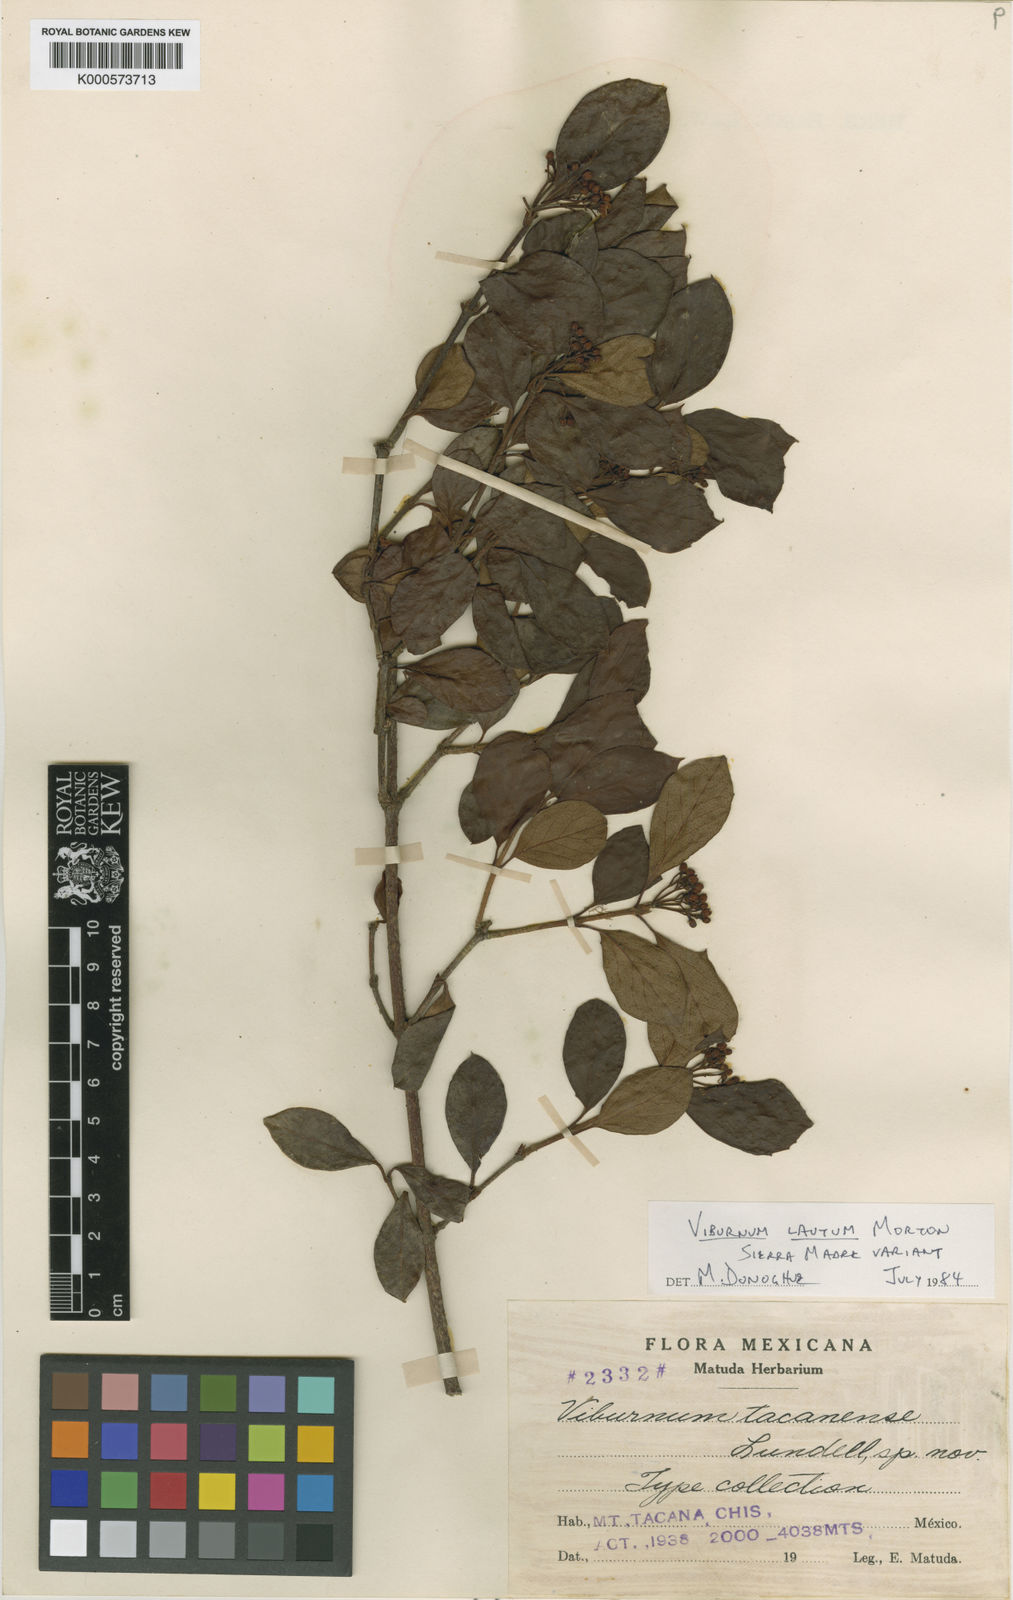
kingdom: Plantae
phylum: Tracheophyta
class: Magnoliopsida
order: Dipsacales
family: Viburnaceae
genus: Viburnum
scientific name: Viburnum lautum
